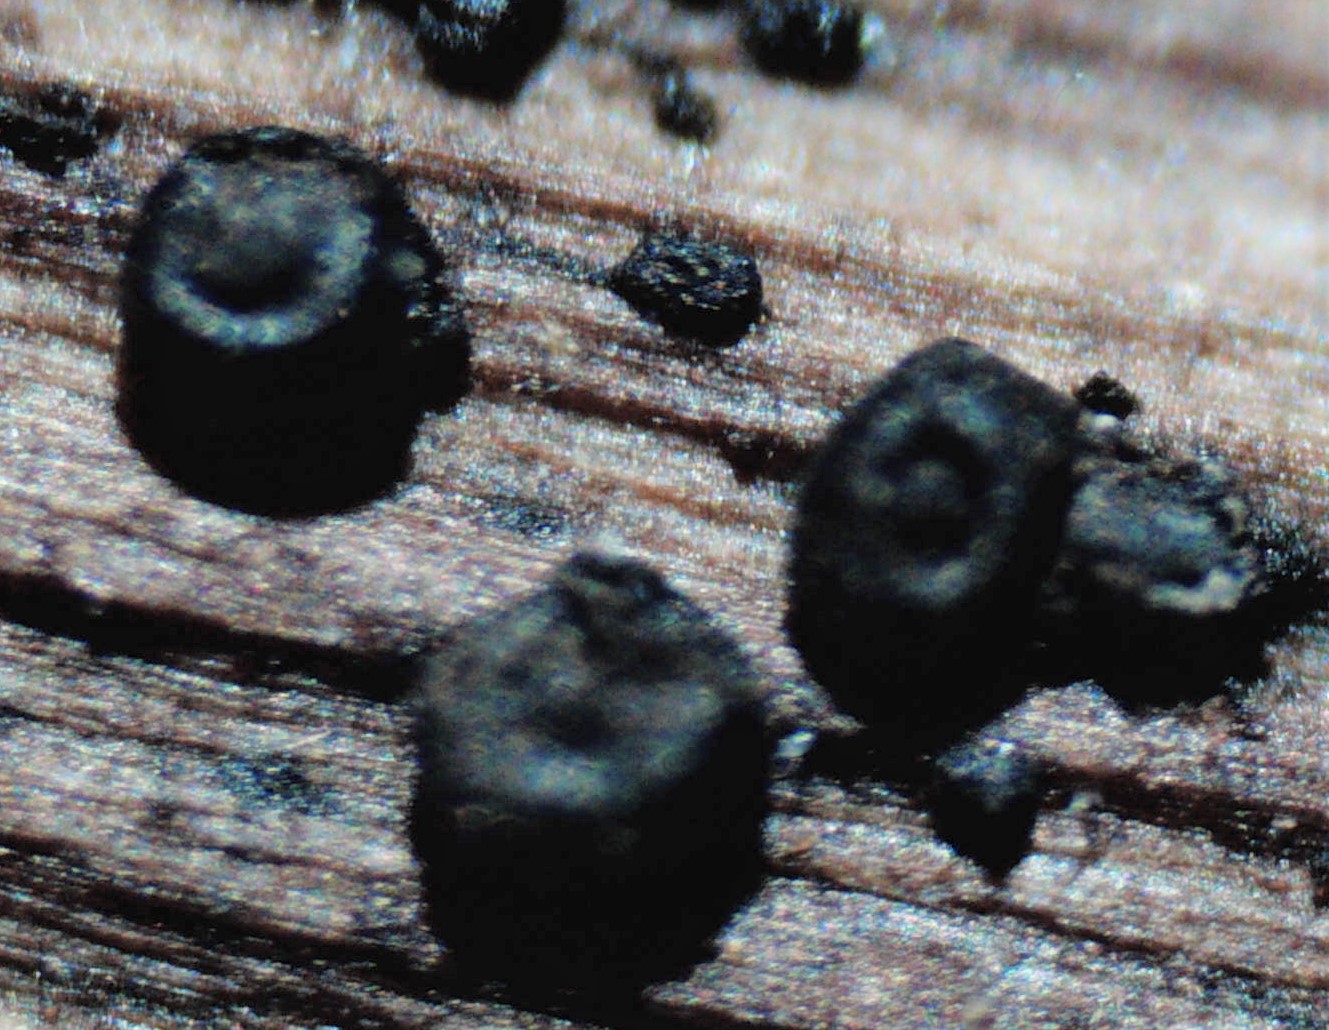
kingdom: Fungi
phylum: Ascomycota
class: Dothideomycetes
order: Pleosporales
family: Leptosphaeriaceae
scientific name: Leptosphaeriaceae
